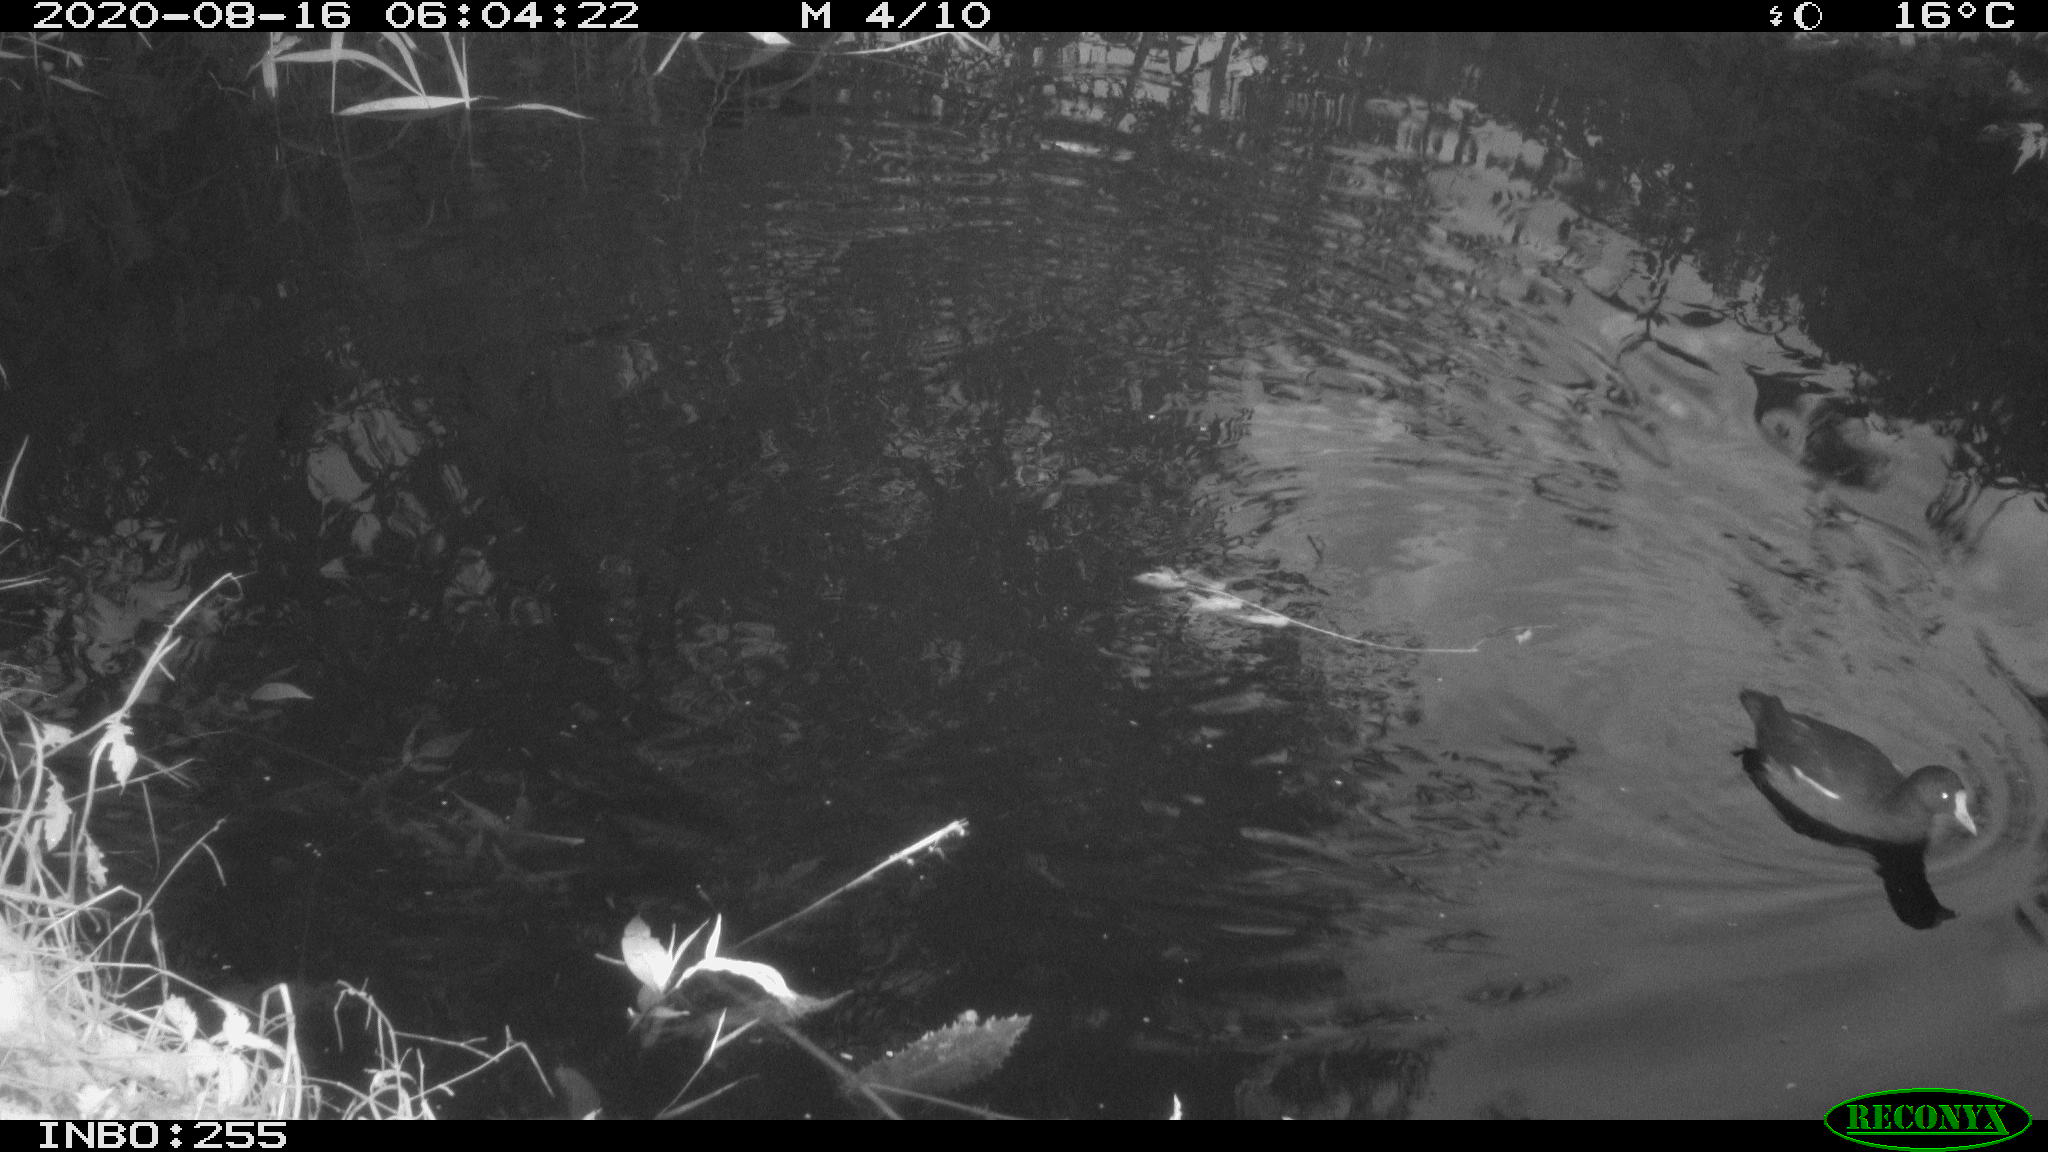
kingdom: Animalia
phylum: Chordata
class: Aves
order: Gruiformes
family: Rallidae
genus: Gallinula
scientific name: Gallinula chloropus
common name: Common moorhen
